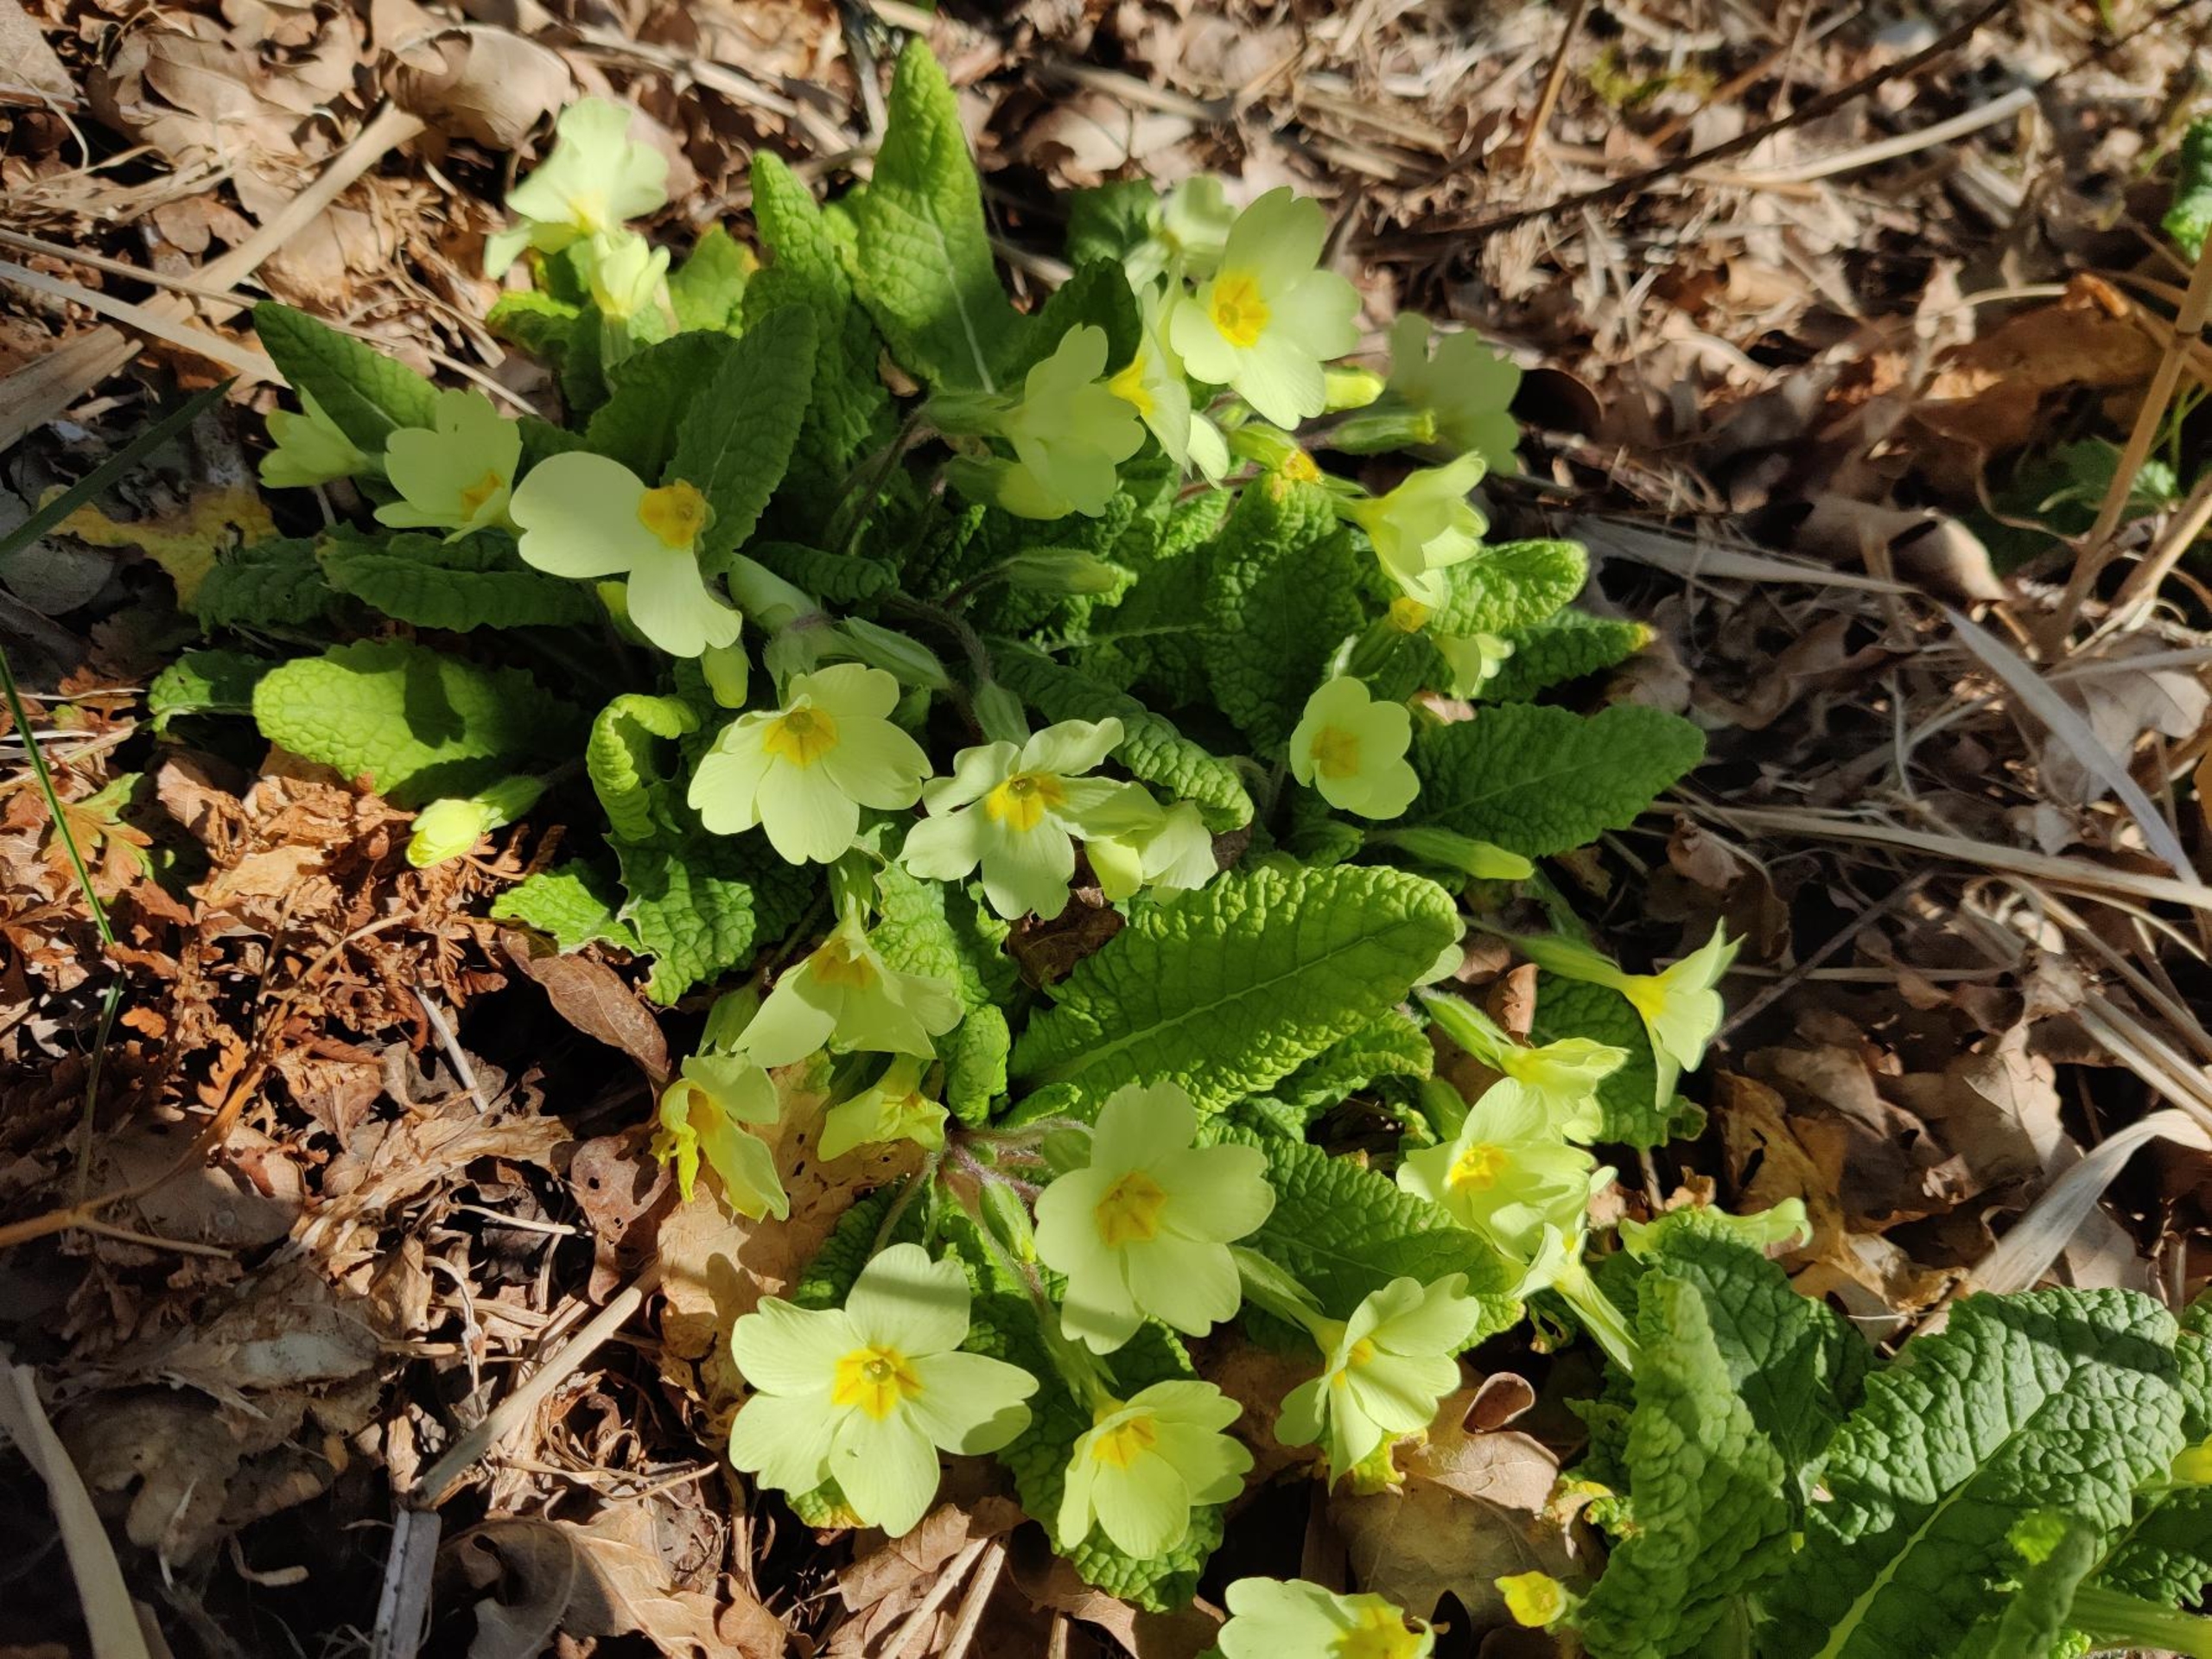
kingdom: Plantae
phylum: Tracheophyta
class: Magnoliopsida
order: Ericales
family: Primulaceae
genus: Primula
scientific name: Primula vulgaris
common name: Storblomstret kodriver
